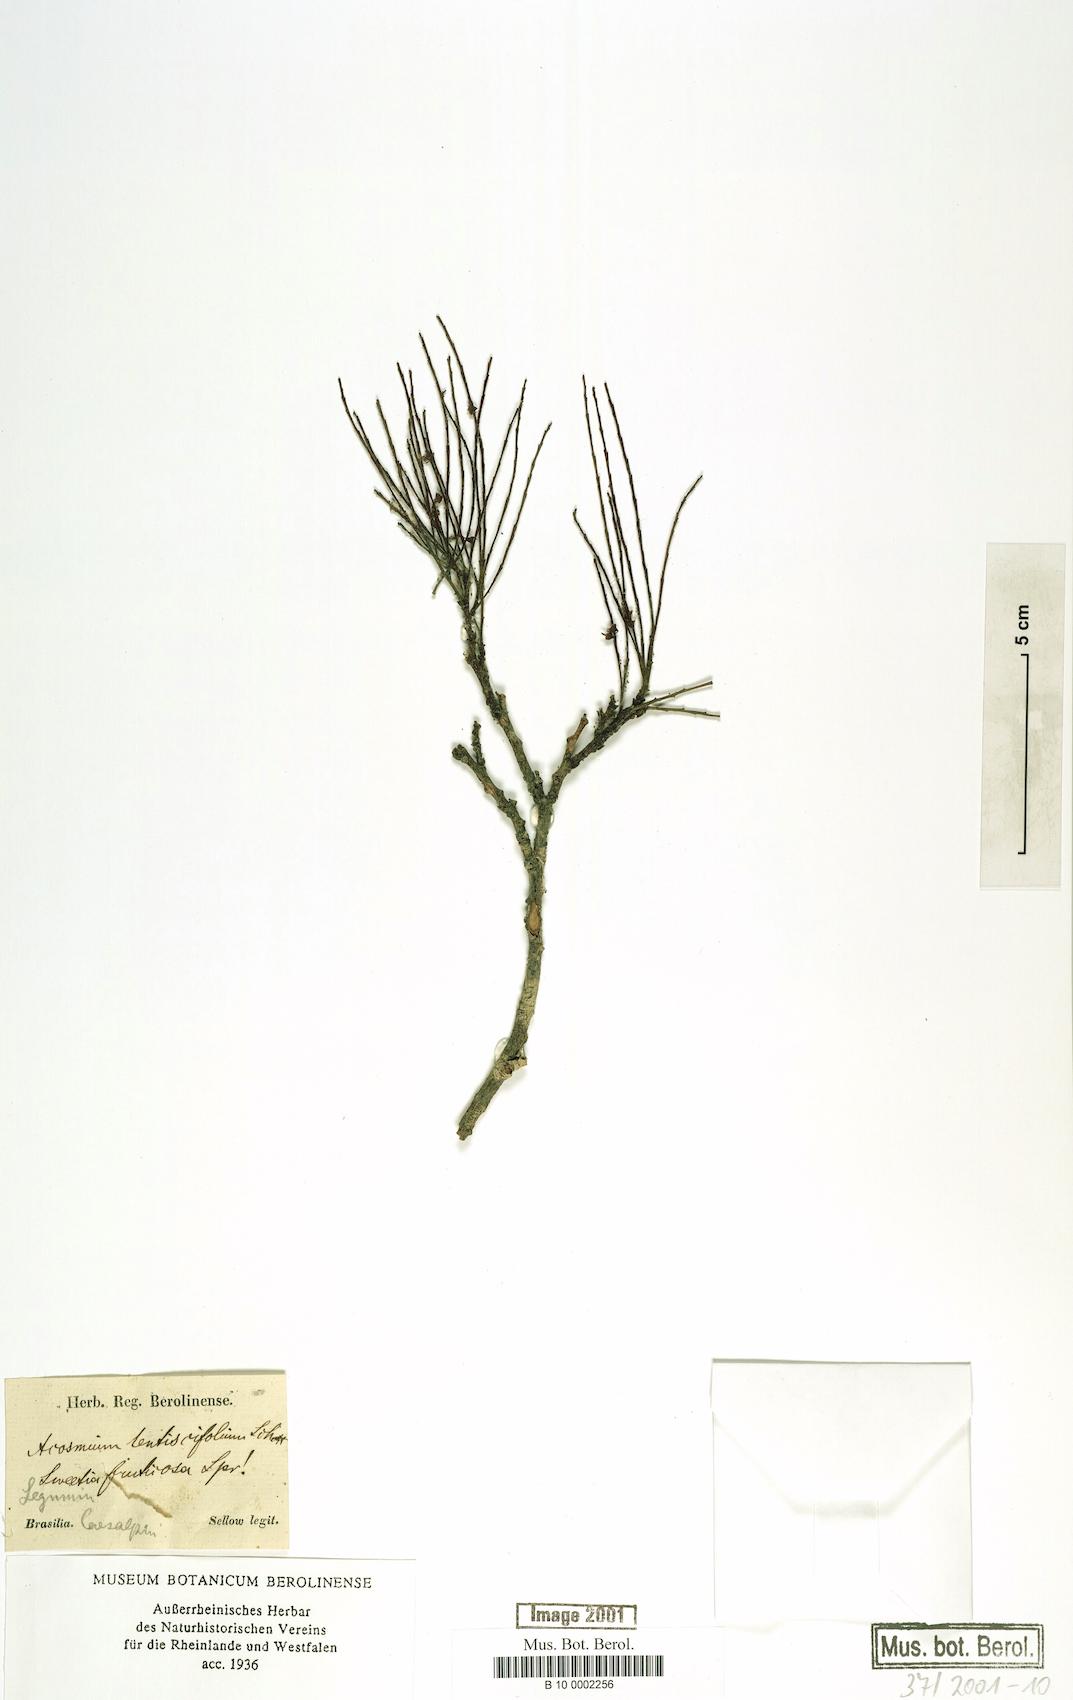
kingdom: Plantae
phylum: Tracheophyta
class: Magnoliopsida
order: Fabales
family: Fabaceae
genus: Sweetia
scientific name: Sweetia fruticosa
